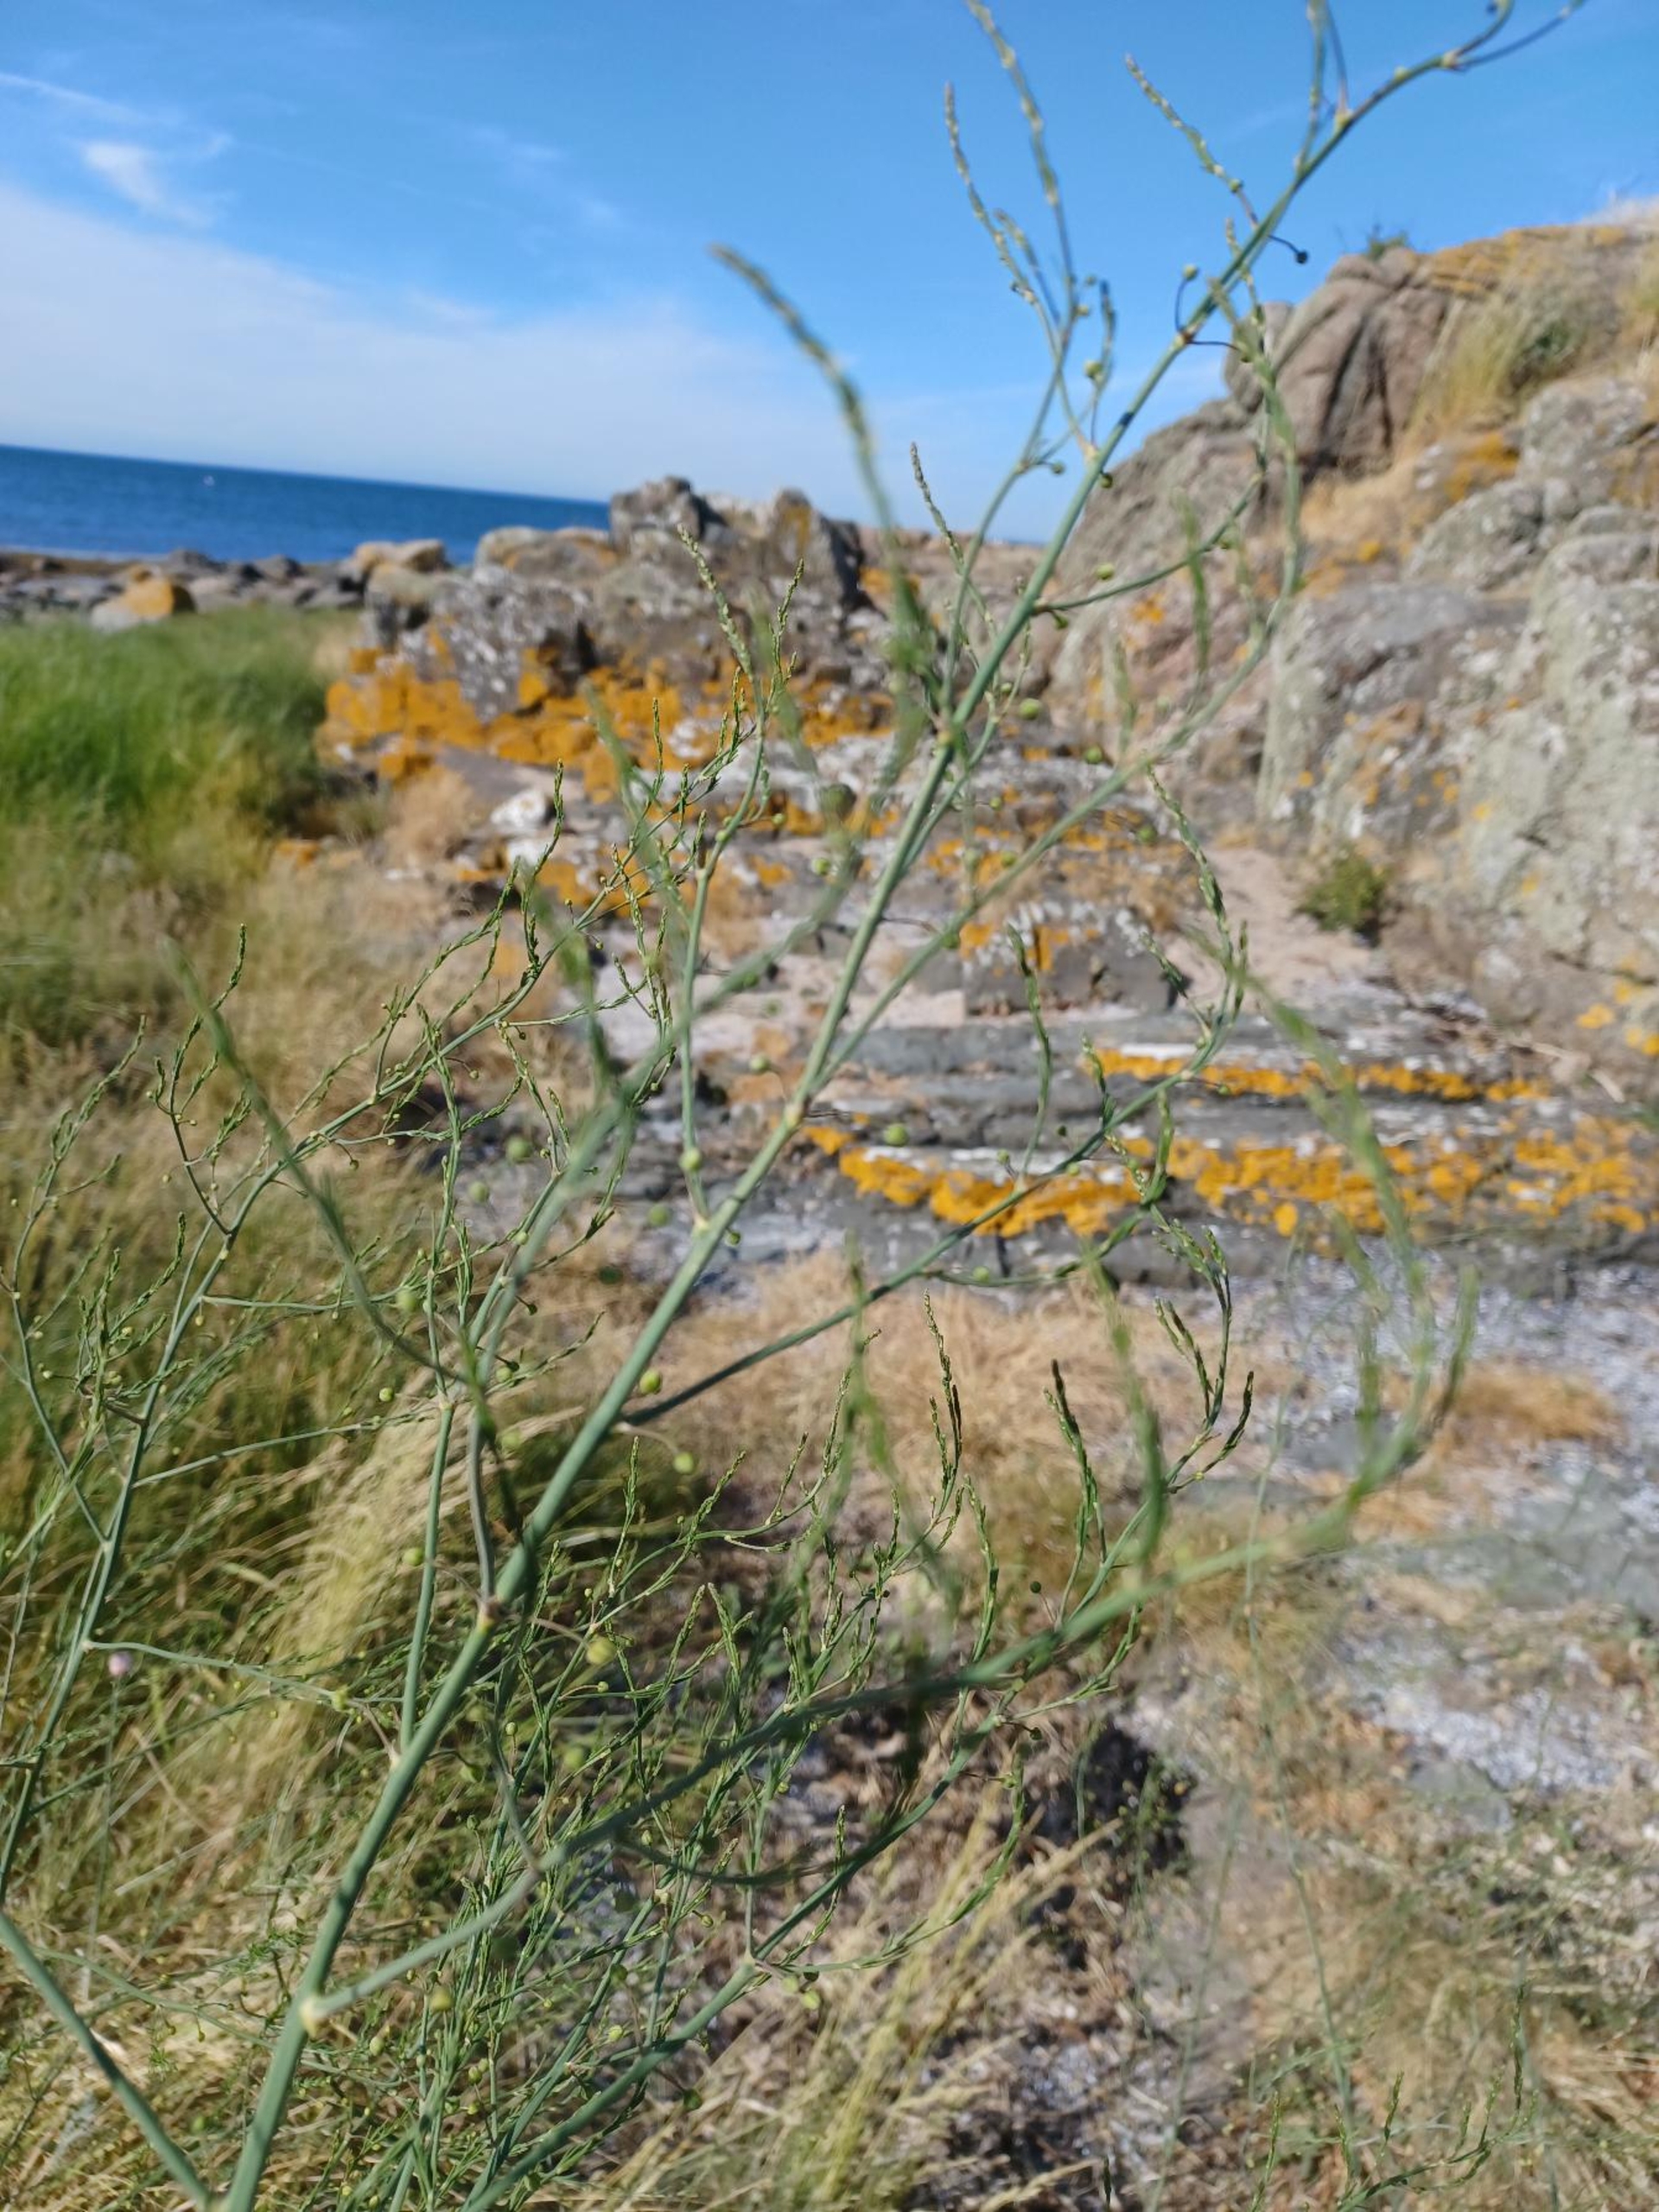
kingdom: Plantae
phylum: Tracheophyta
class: Liliopsida
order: Asparagales
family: Asparagaceae
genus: Asparagus
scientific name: Asparagus officinalis
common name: Asparges
